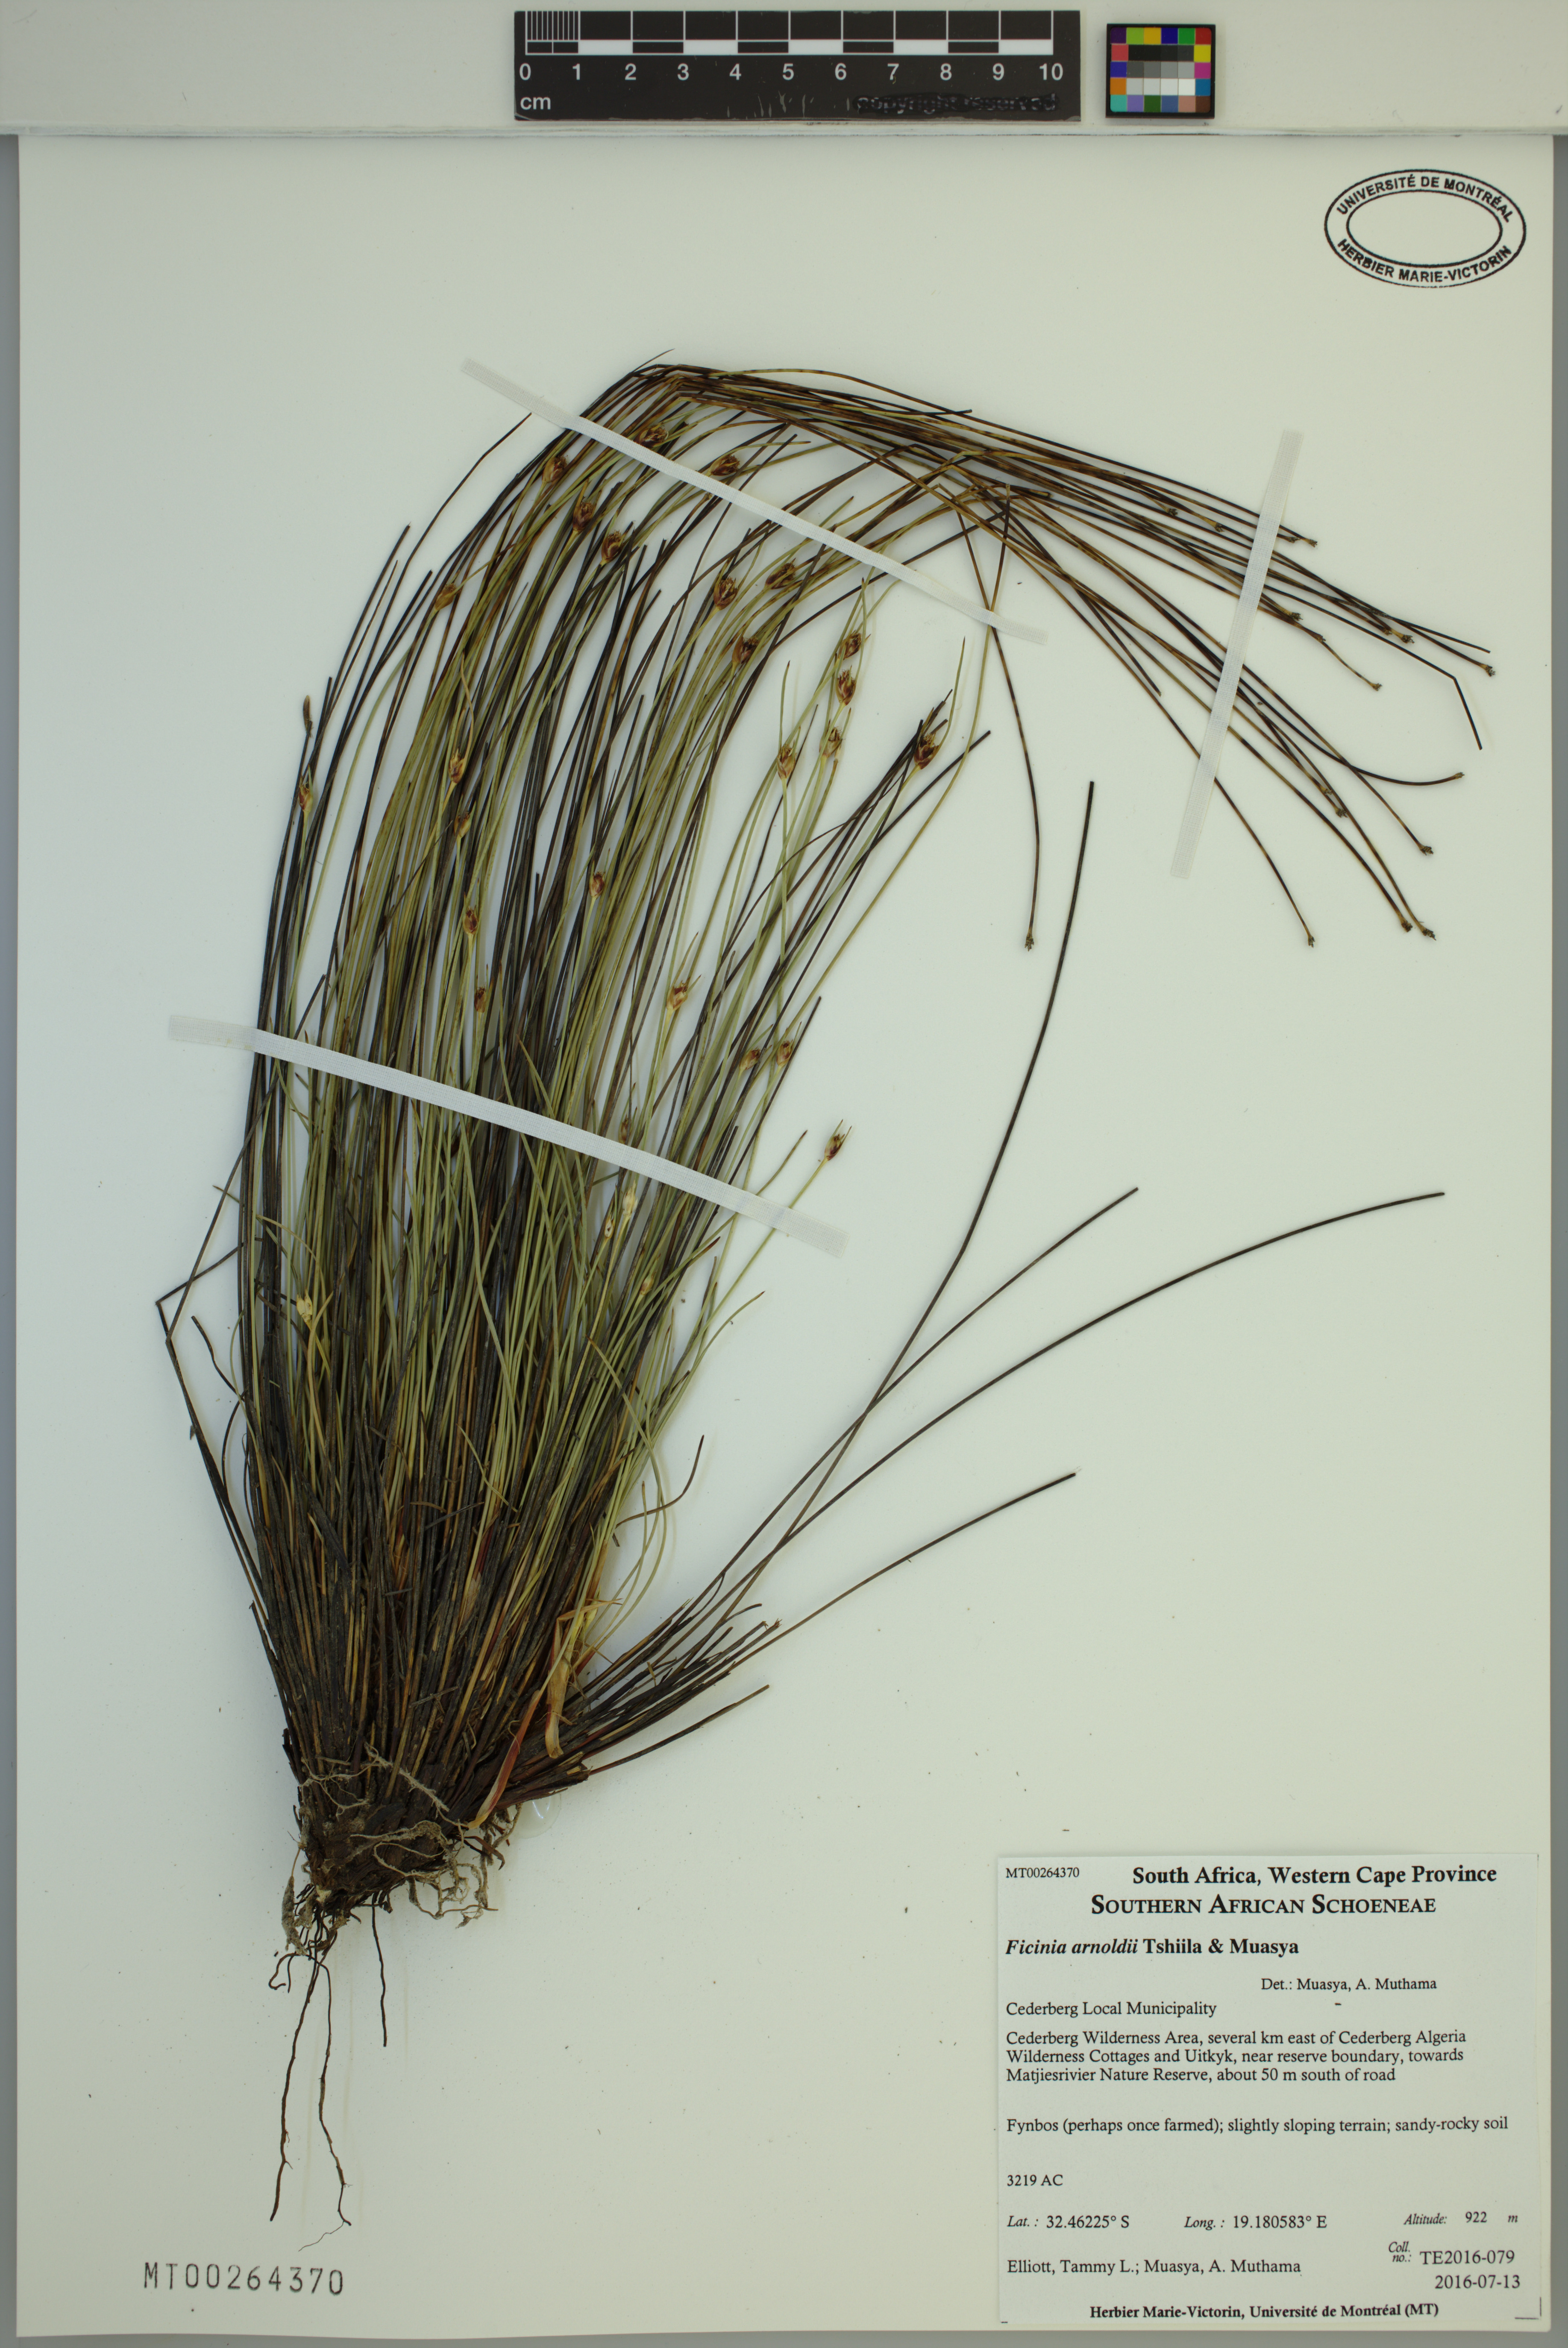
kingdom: Plantae
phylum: Tracheophyta
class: Liliopsida
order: Poales
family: Cyperaceae
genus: Ficinia
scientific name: Ficinia arnoldii
